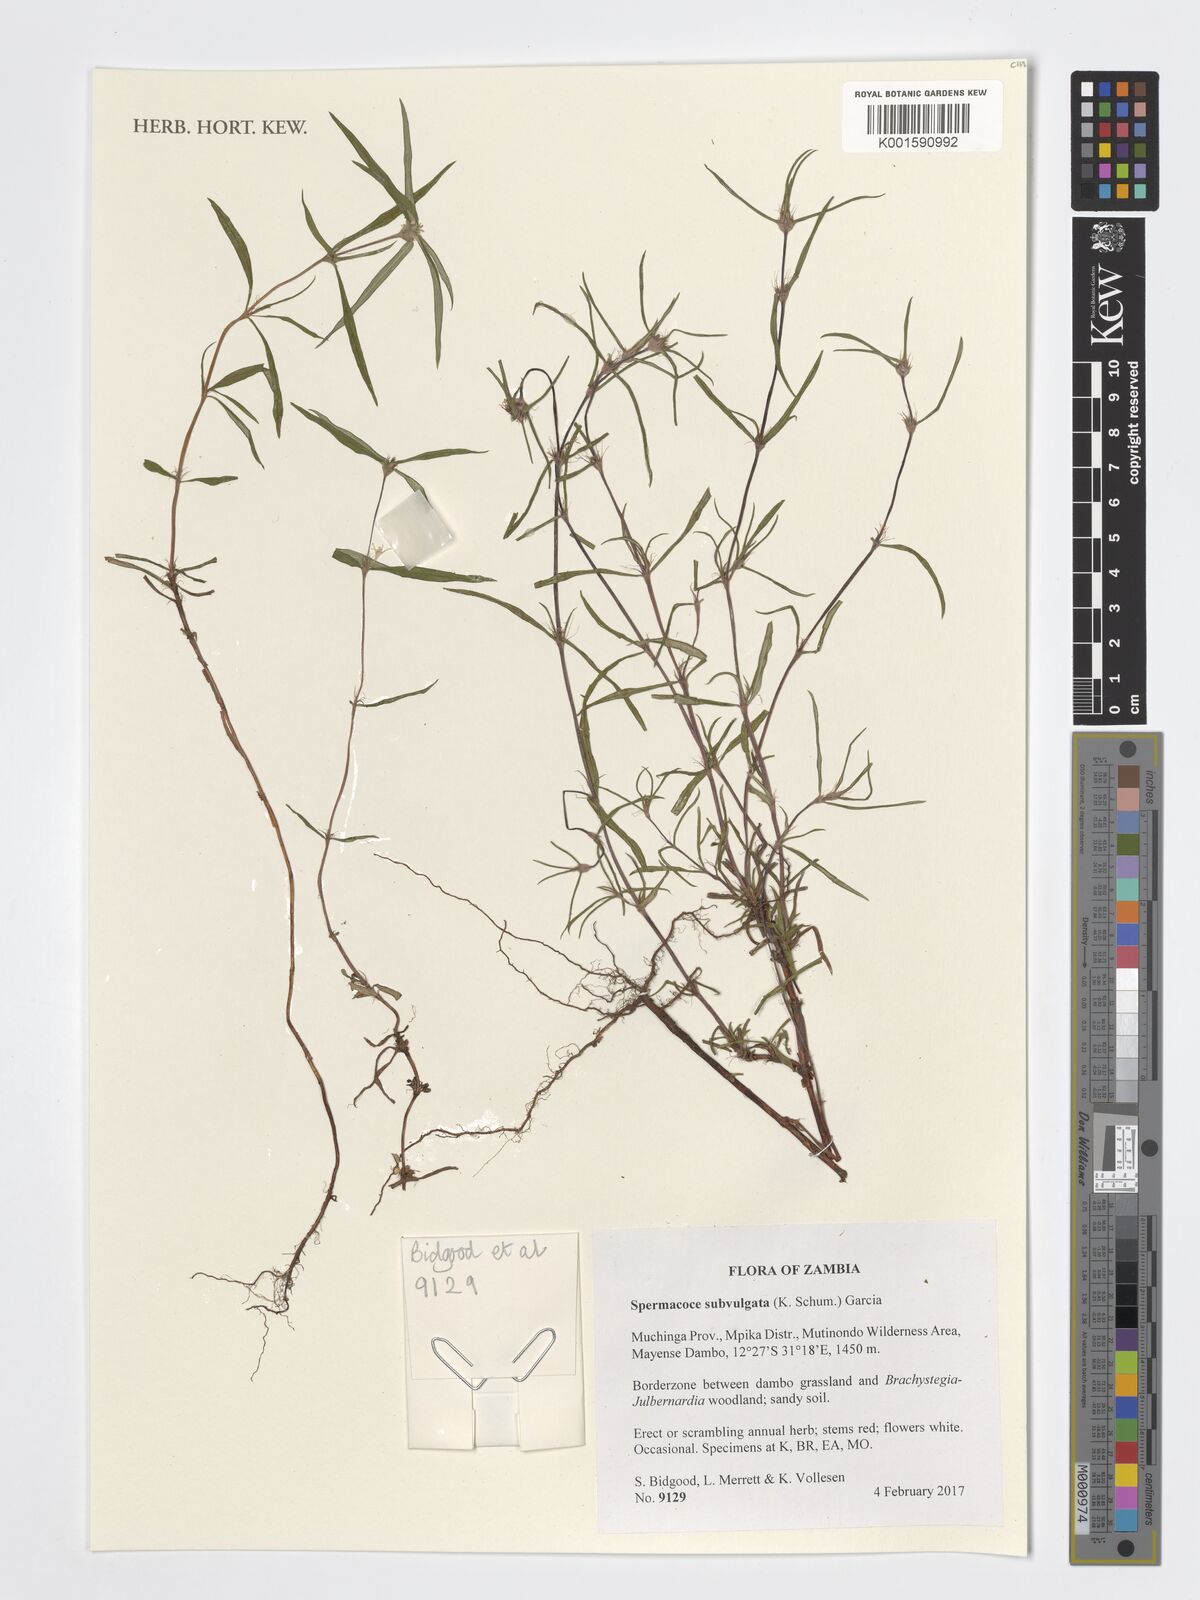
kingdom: Plantae
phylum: Tracheophyta
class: Magnoliopsida
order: Gentianales
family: Rubiaceae
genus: Spermacoce
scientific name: Spermacoce subvulgata
